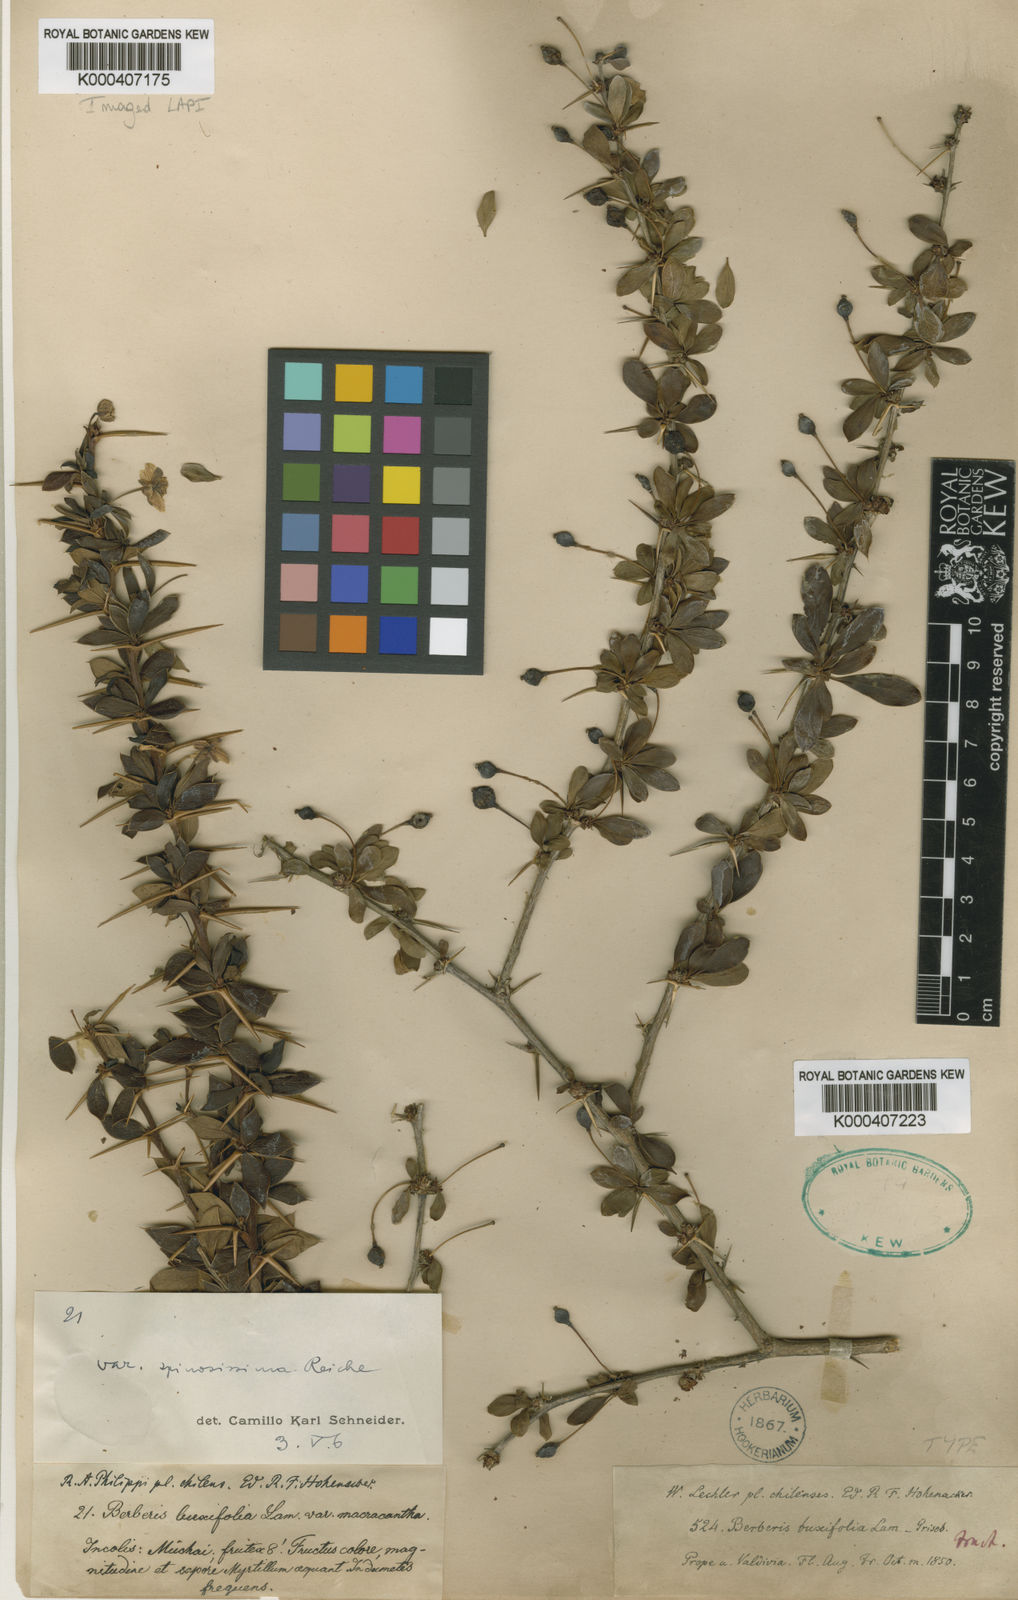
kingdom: Plantae
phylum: Tracheophyta
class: Magnoliopsida
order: Ranunculales
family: Berberidaceae
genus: Berberis
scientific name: Berberis microphylla
